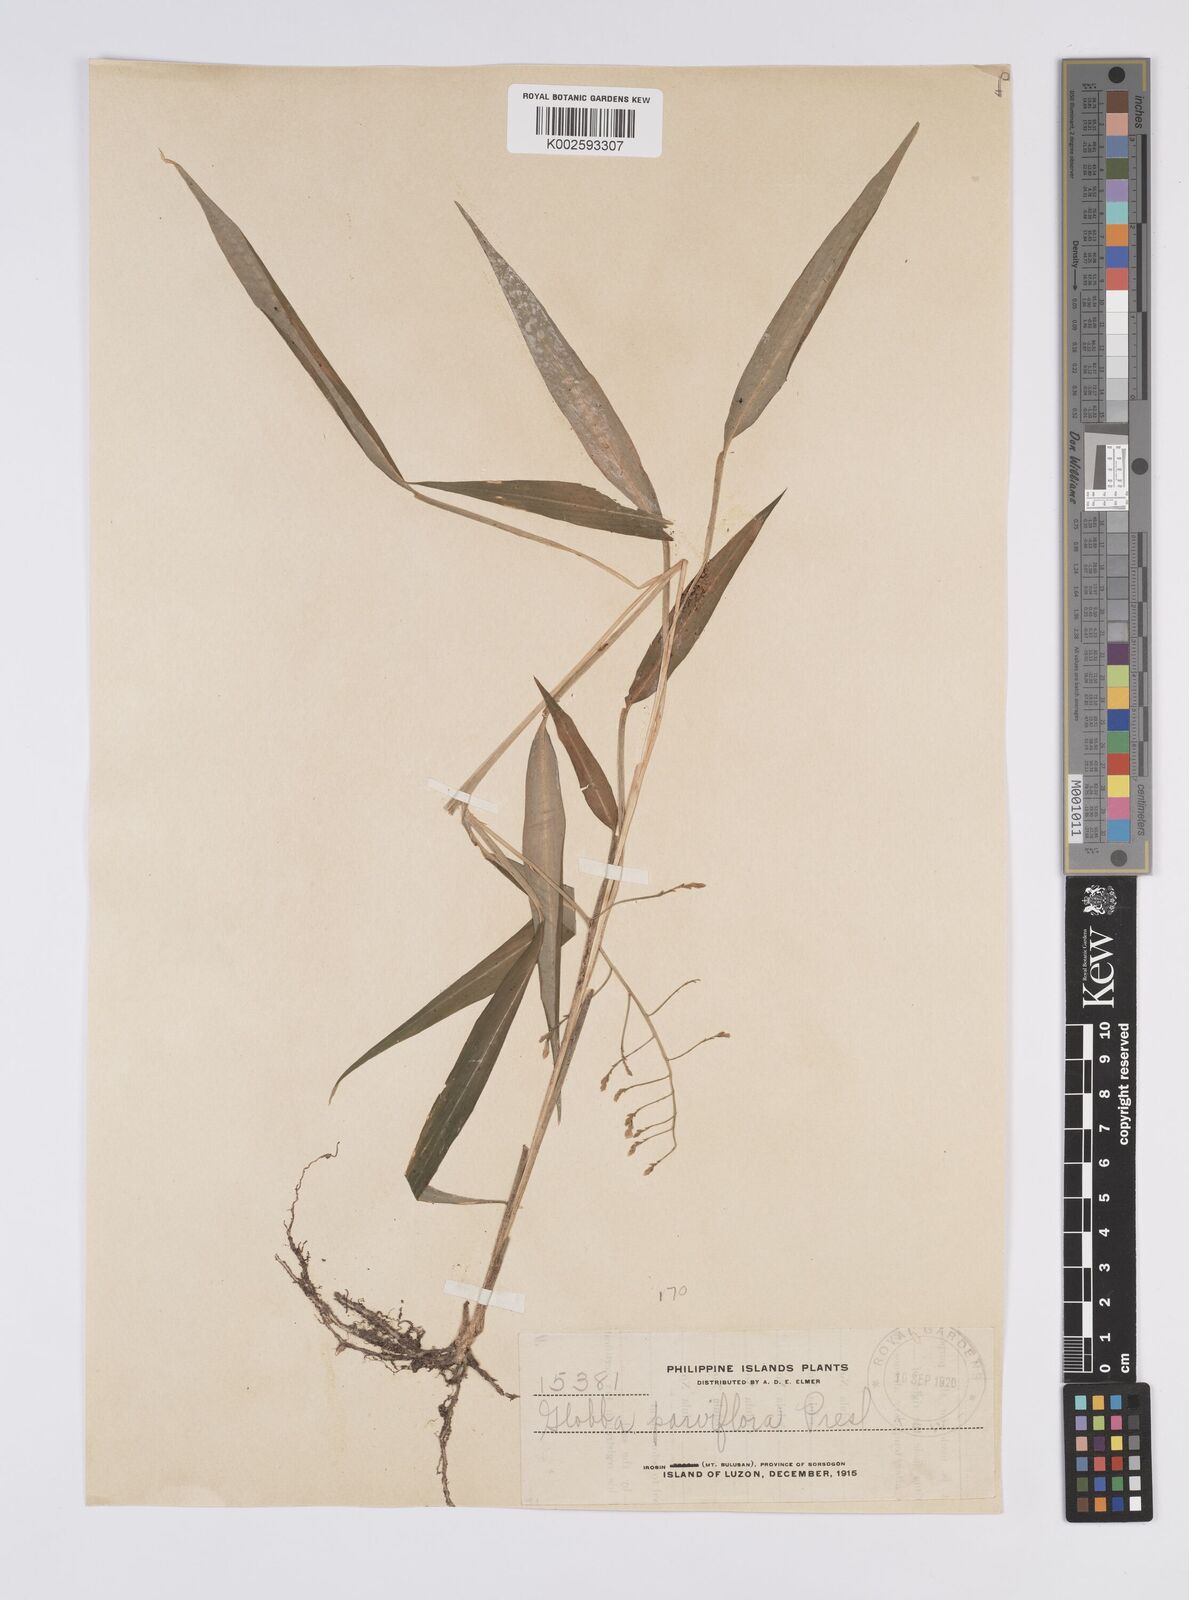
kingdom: Plantae
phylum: Tracheophyta
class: Liliopsida
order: Zingiberales
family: Zingiberaceae
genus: Globba
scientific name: Globba parviflora
